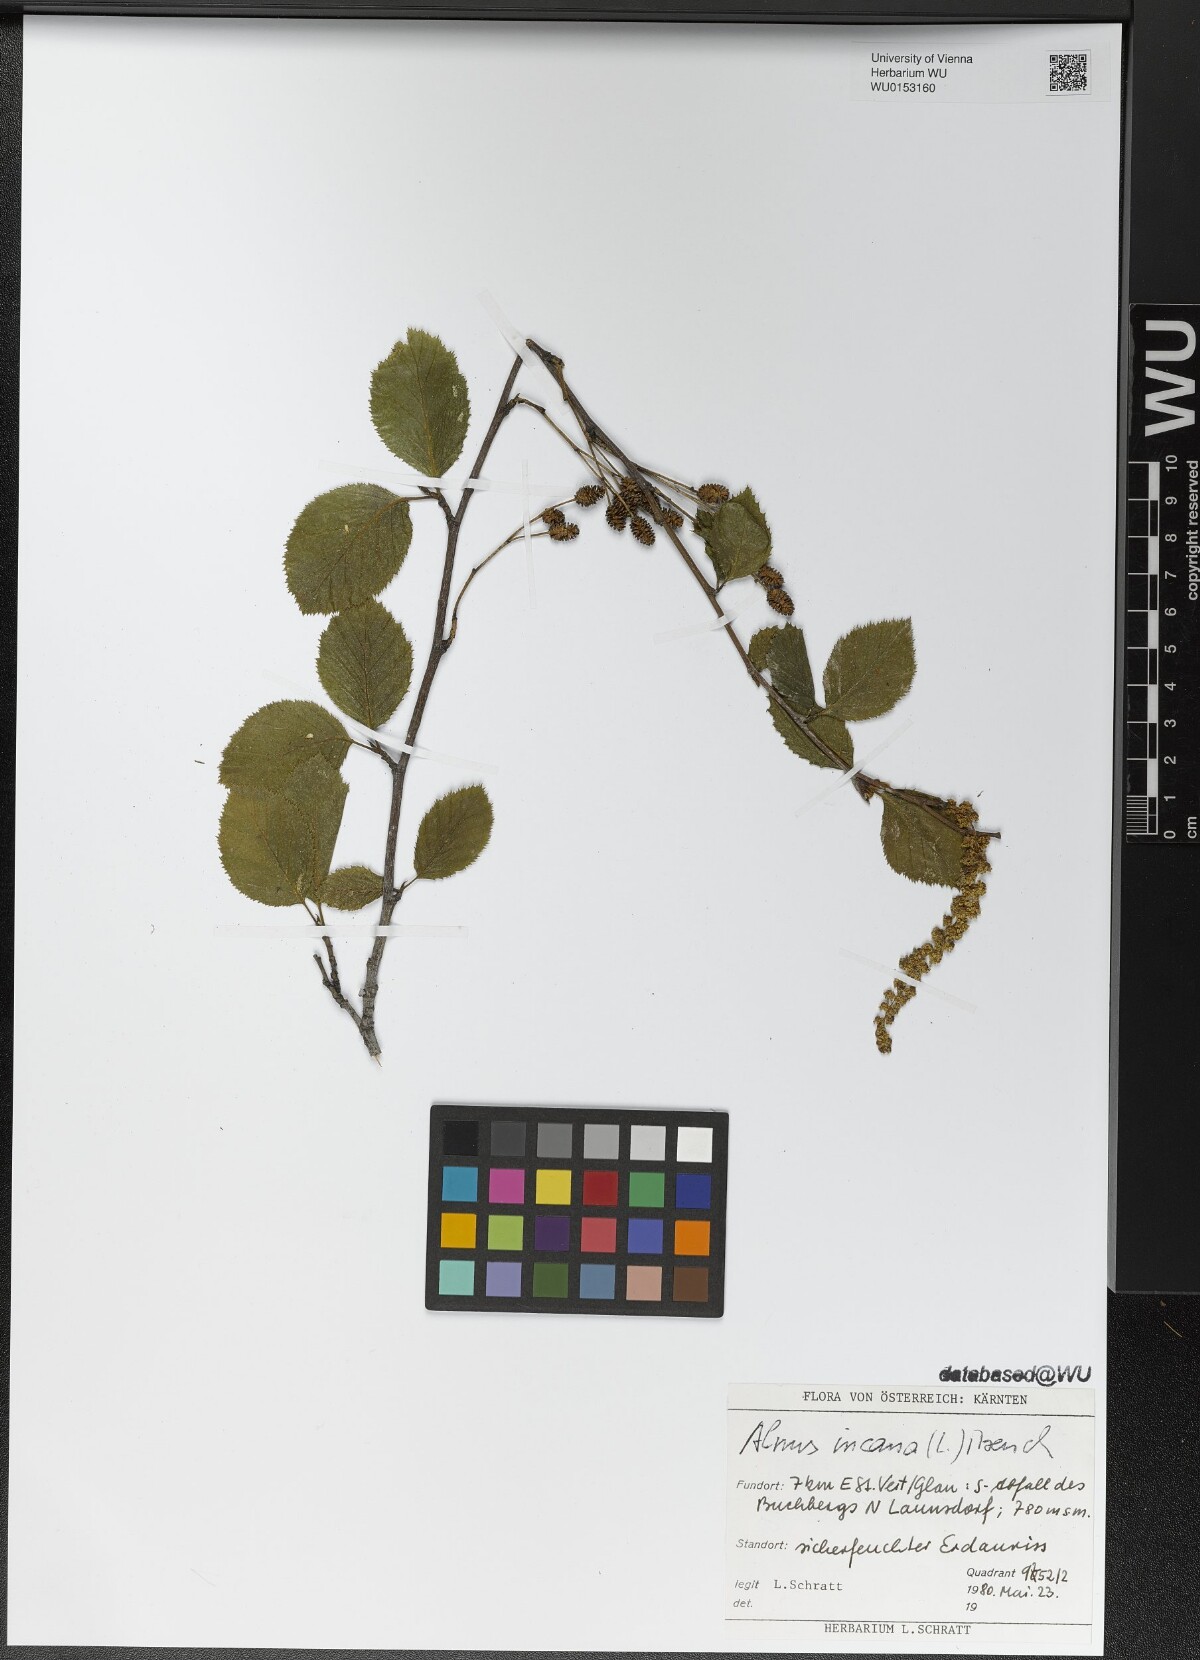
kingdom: Plantae
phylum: Tracheophyta
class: Magnoliopsida
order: Fagales
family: Betulaceae
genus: Alnus
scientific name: Alnus incana
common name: Grey alder
